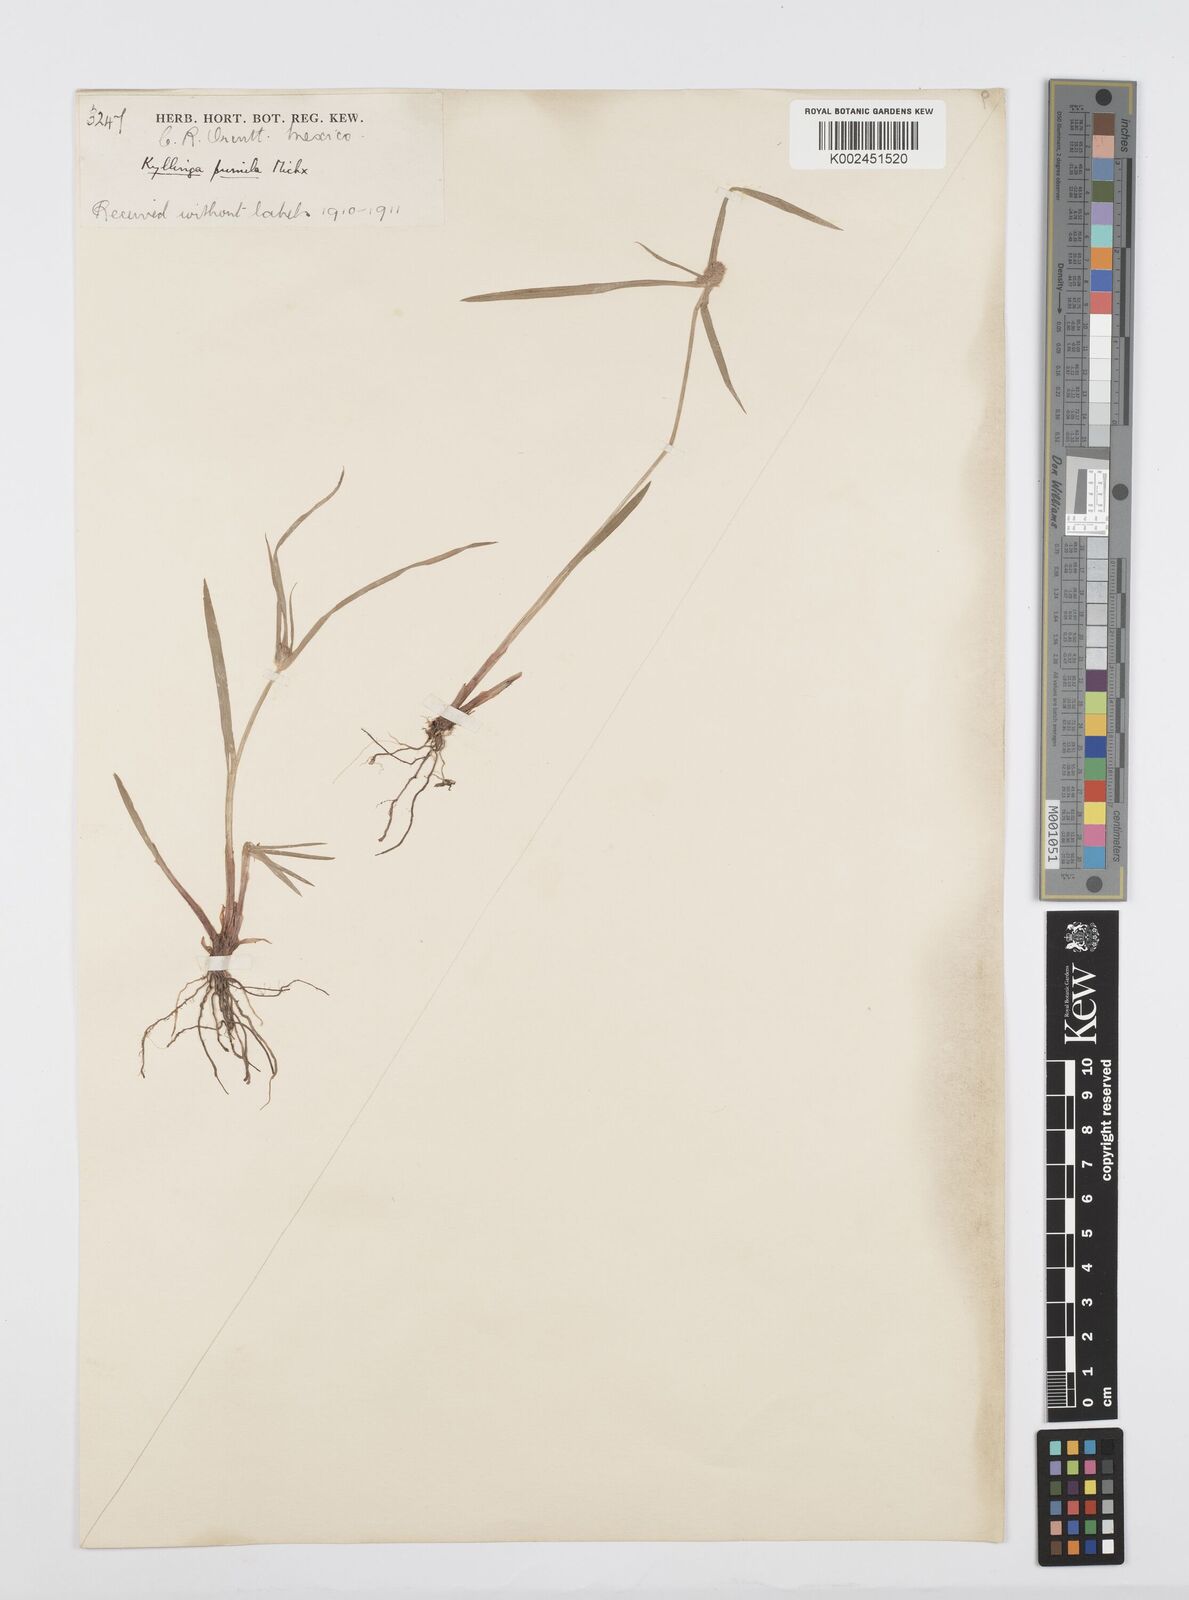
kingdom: Plantae
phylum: Tracheophyta
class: Liliopsida
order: Poales
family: Cyperaceae
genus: Cyperus
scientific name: Cyperus hortensis
